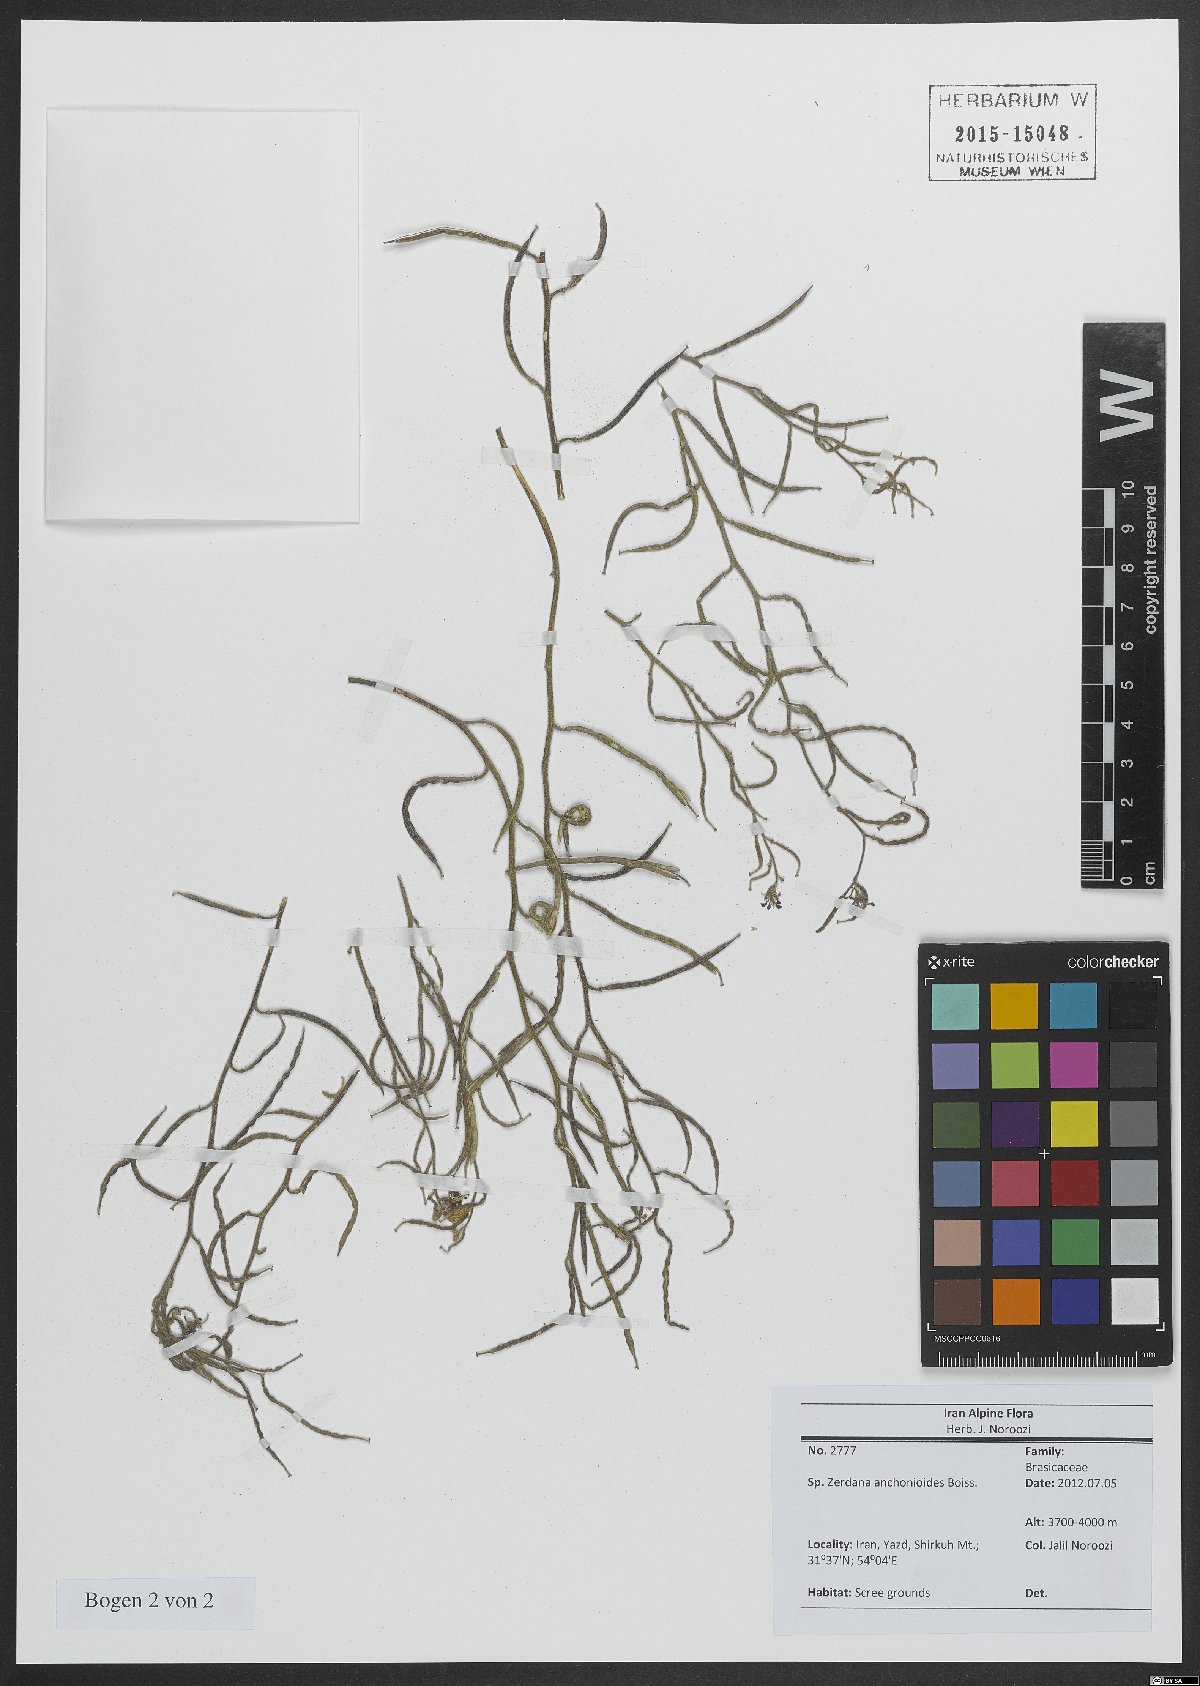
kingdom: Plantae
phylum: Tracheophyta
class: Magnoliopsida
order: Brassicales
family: Brassicaceae
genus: Zerdana
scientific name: Zerdana anchonioides
